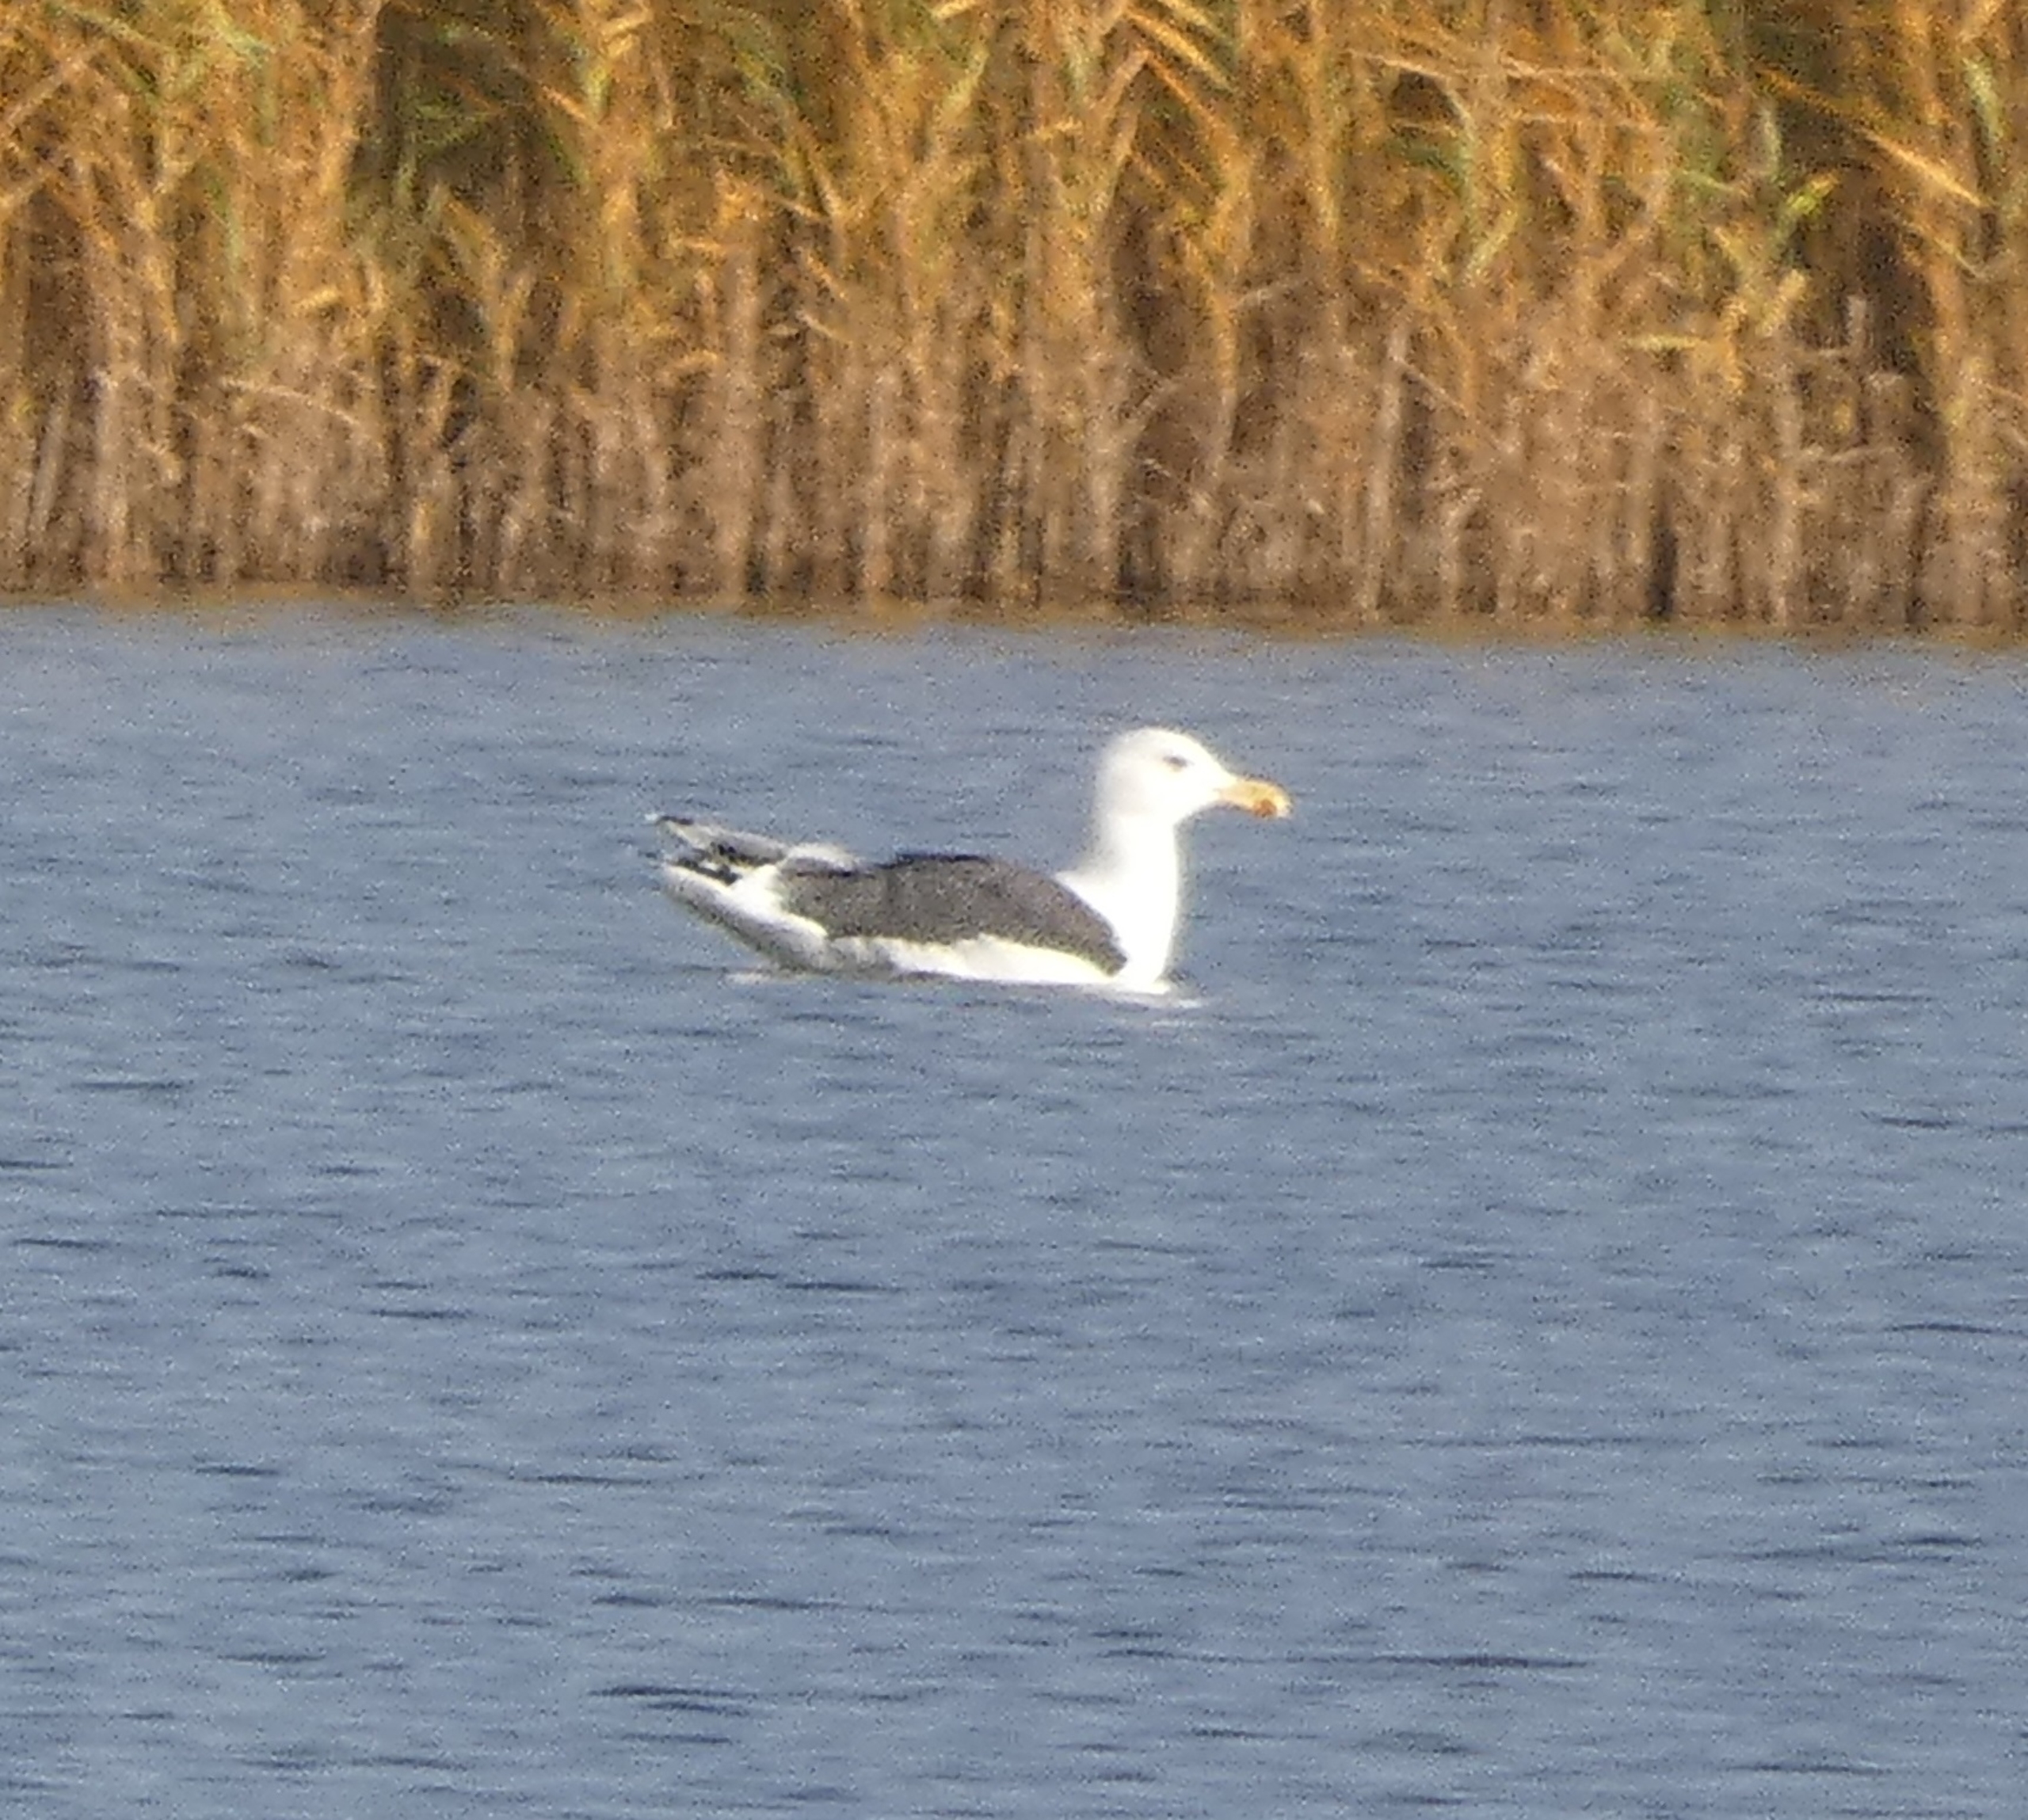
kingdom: Animalia
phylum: Chordata
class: Aves
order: Charadriiformes
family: Laridae
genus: Larus
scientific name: Larus marinus
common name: Svartbag
